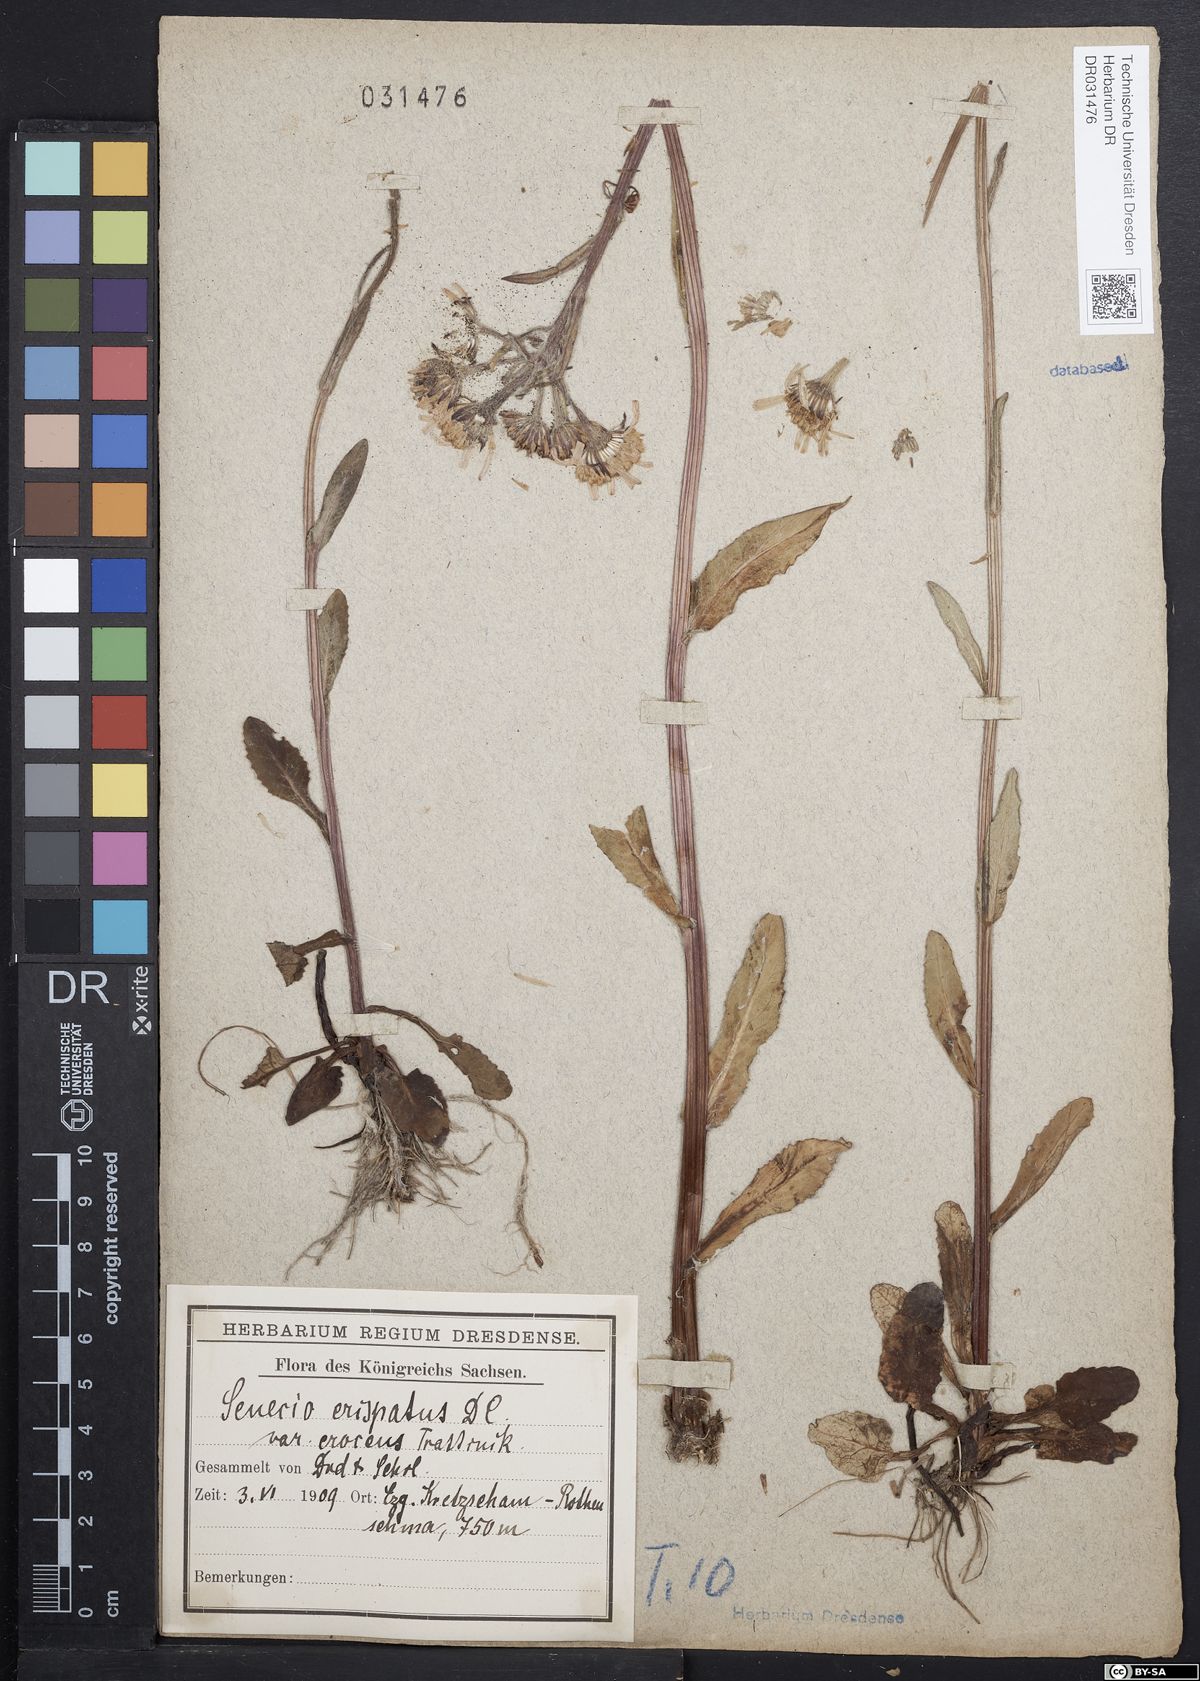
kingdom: Plantae
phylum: Tracheophyta
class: Magnoliopsida
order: Asterales
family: Asteraceae
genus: Tephroseris
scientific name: Tephroseris crispa
